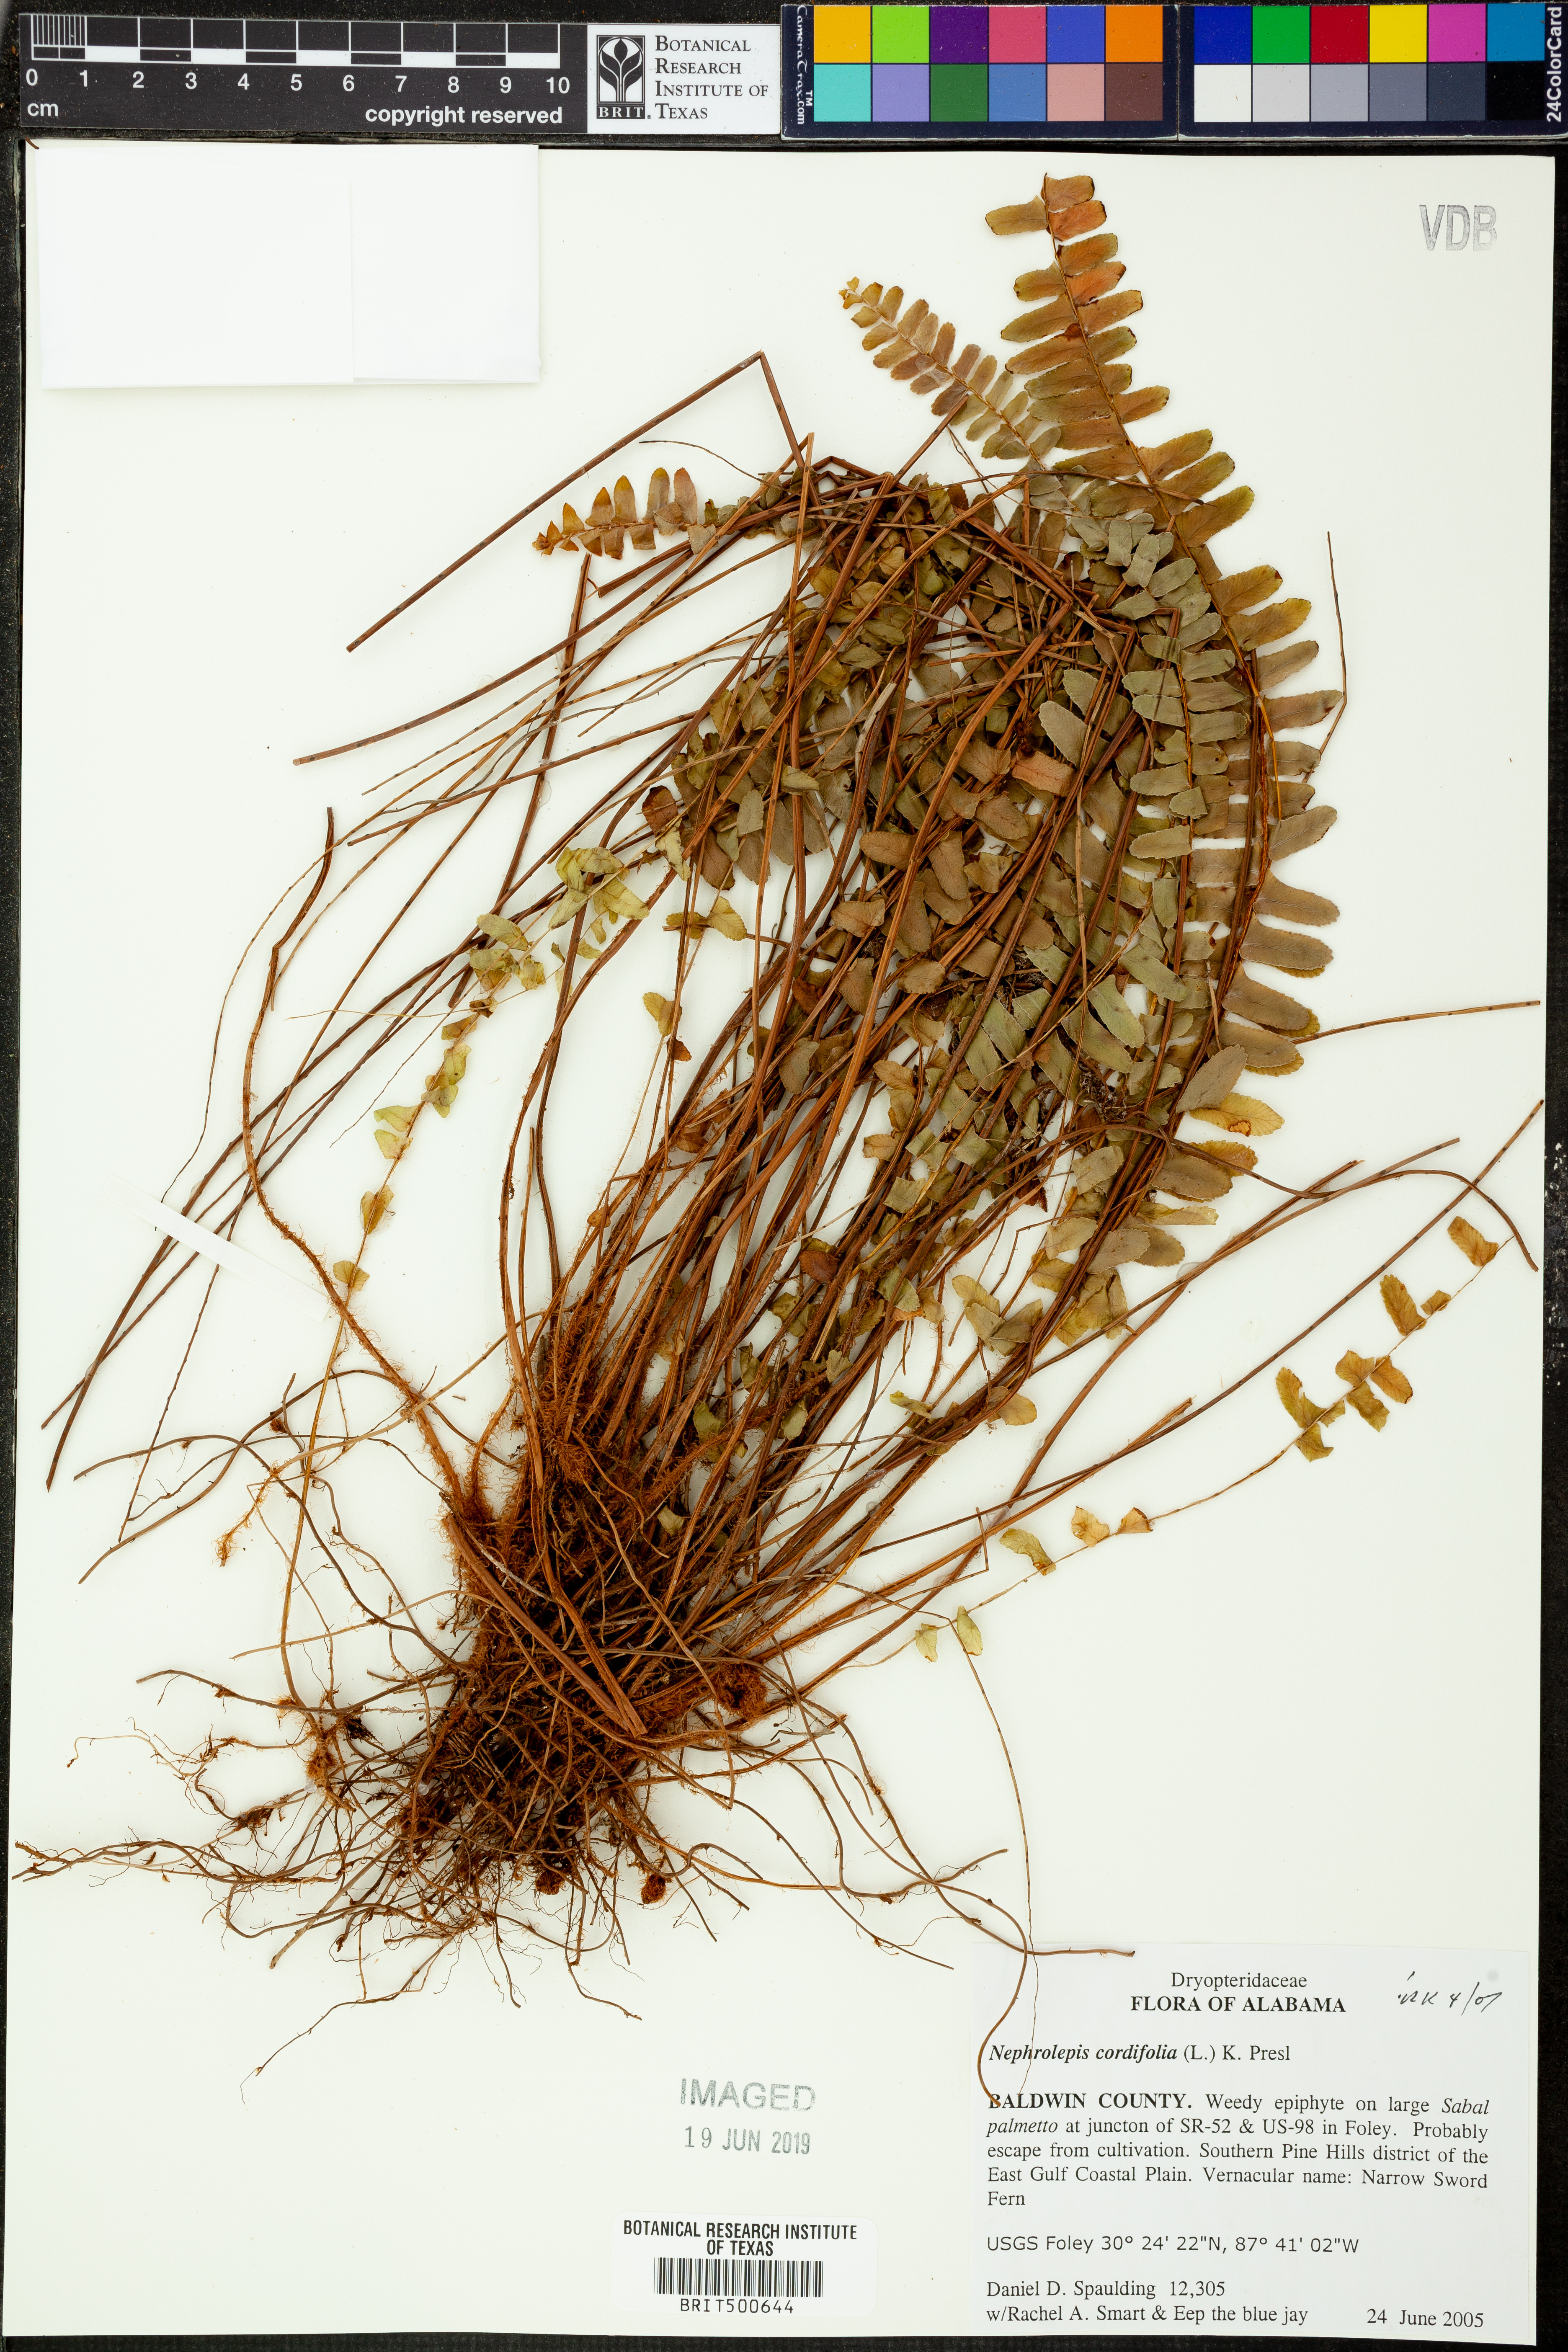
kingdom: Plantae
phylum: Tracheophyta
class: Polypodiopsida
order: Polypodiales
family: Nephrolepidaceae
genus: Nephrolepis
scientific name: Nephrolepis cordifolia
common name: Narrow swordfern
